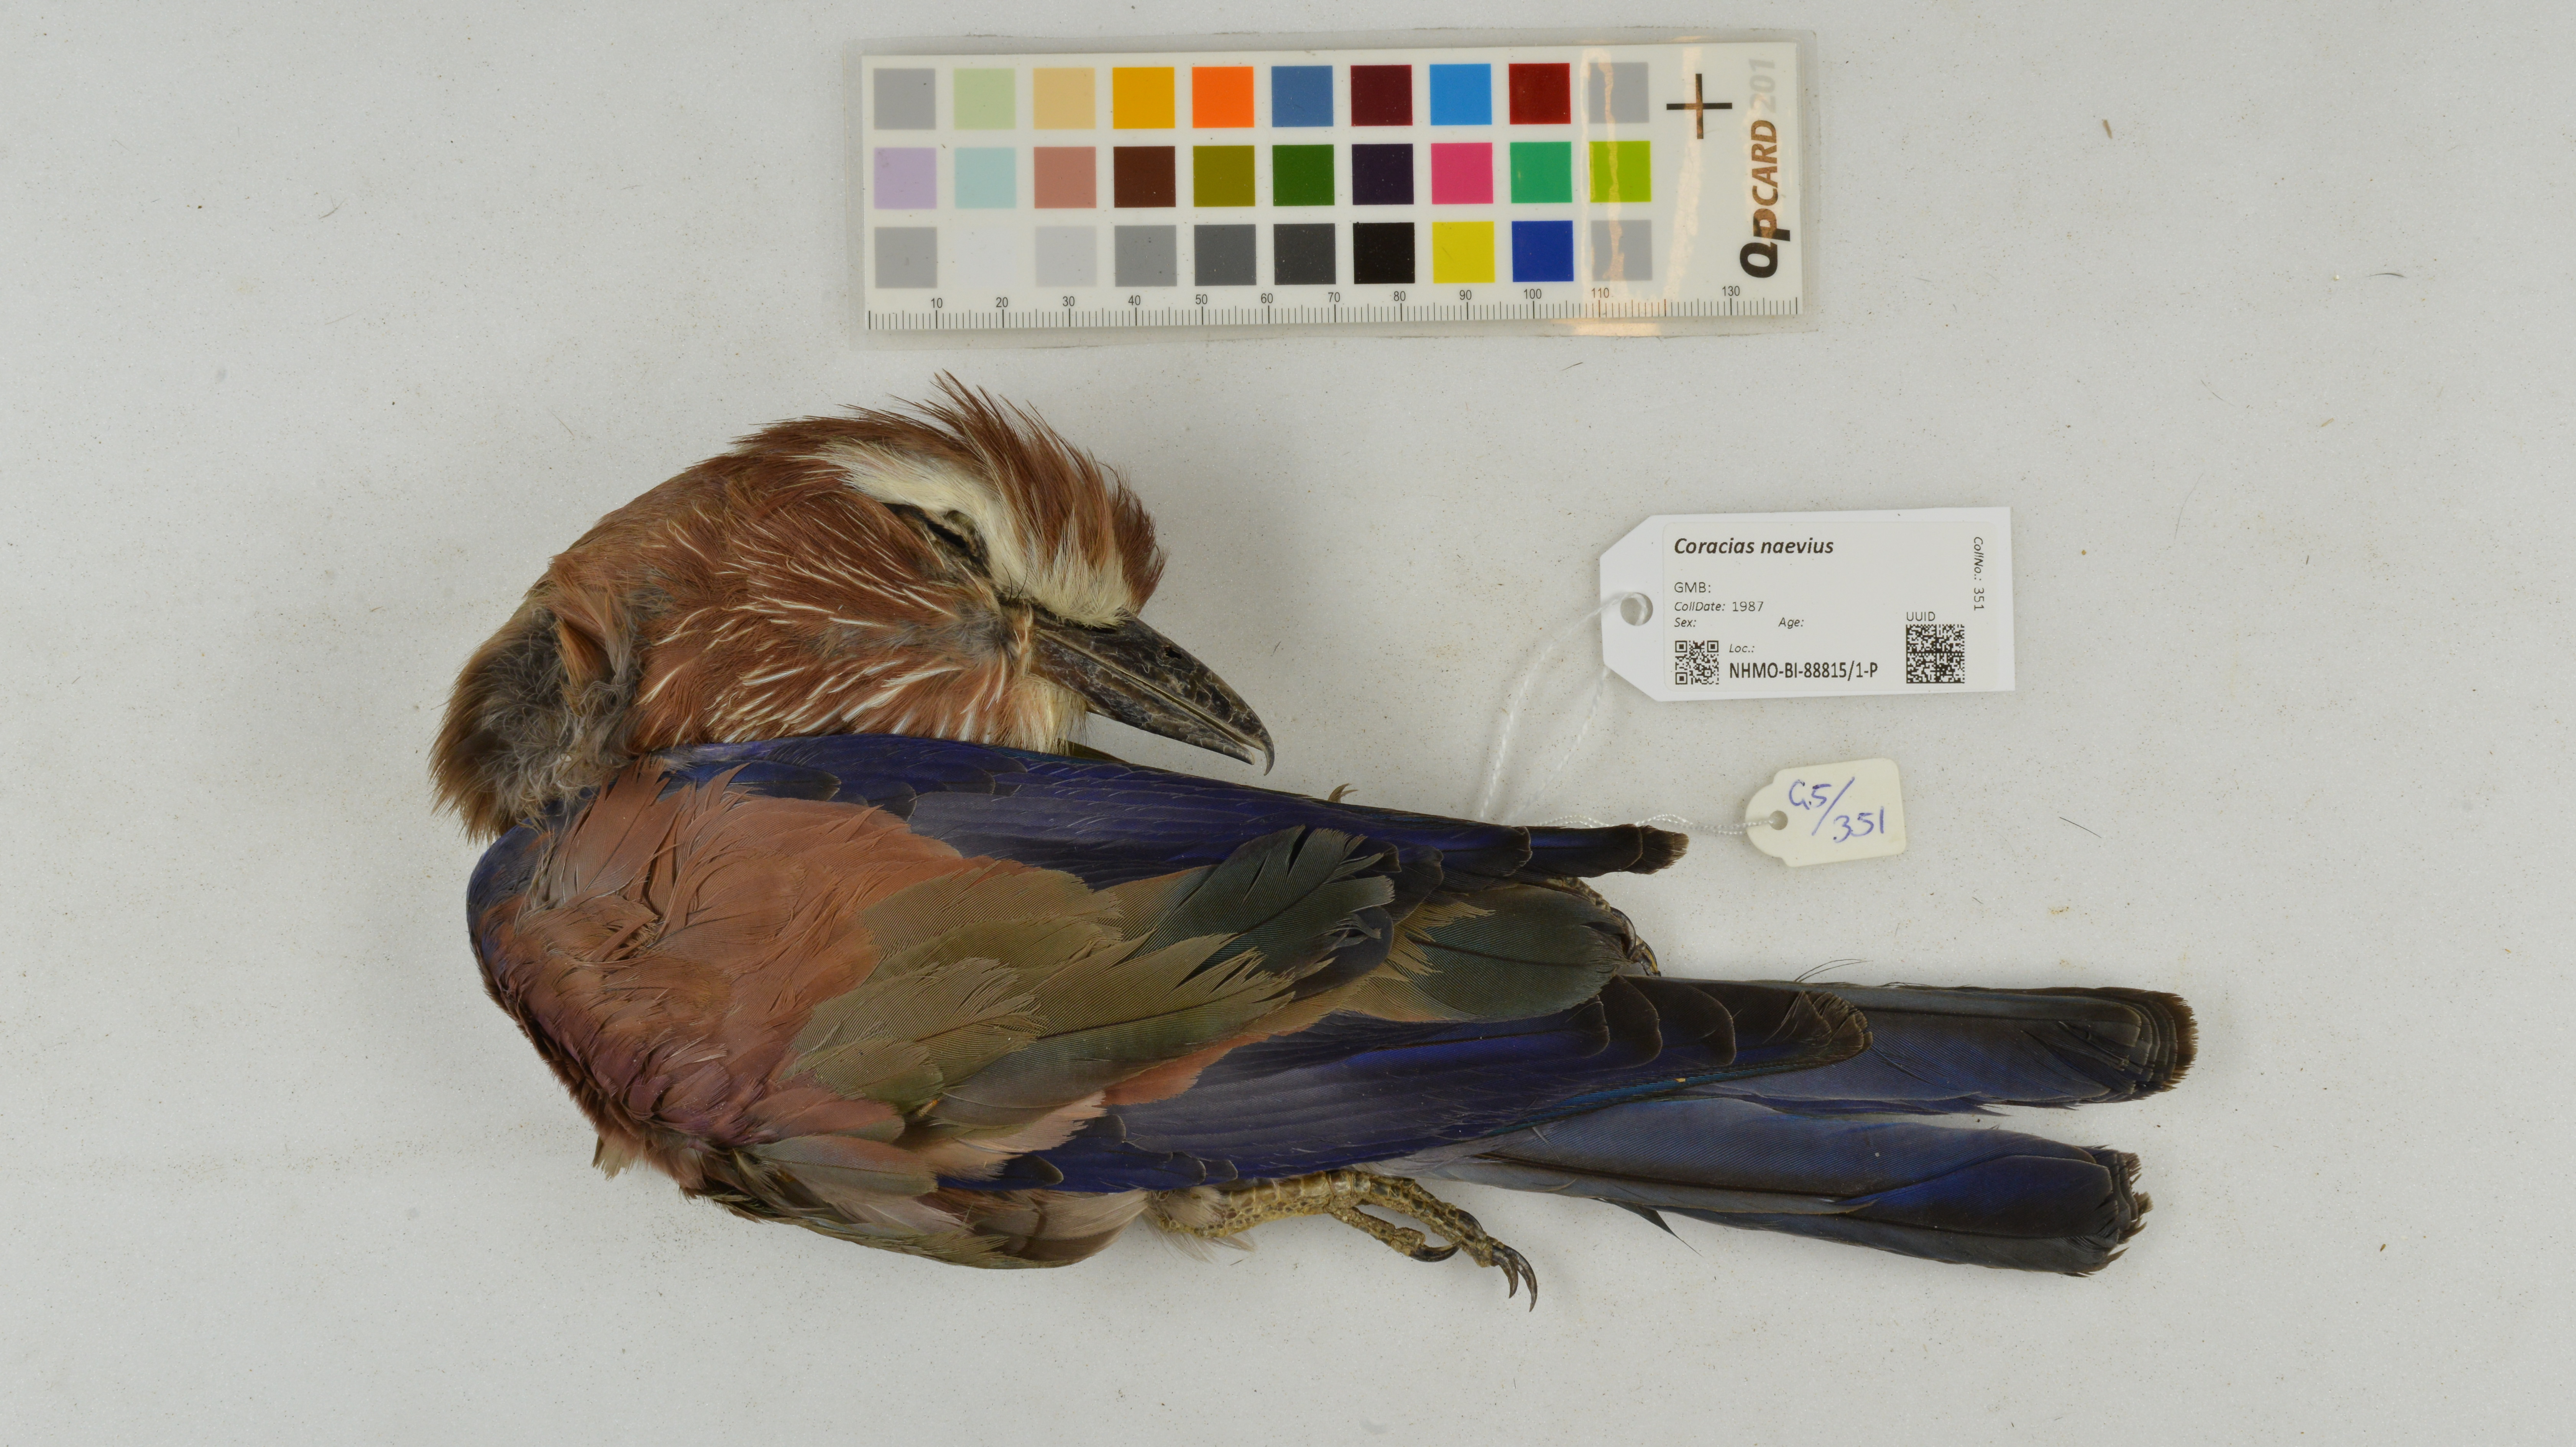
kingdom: Animalia
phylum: Chordata
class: Aves
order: Coraciiformes
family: Coraciidae
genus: Coracias
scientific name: Coracias naevius
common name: Purple roller
